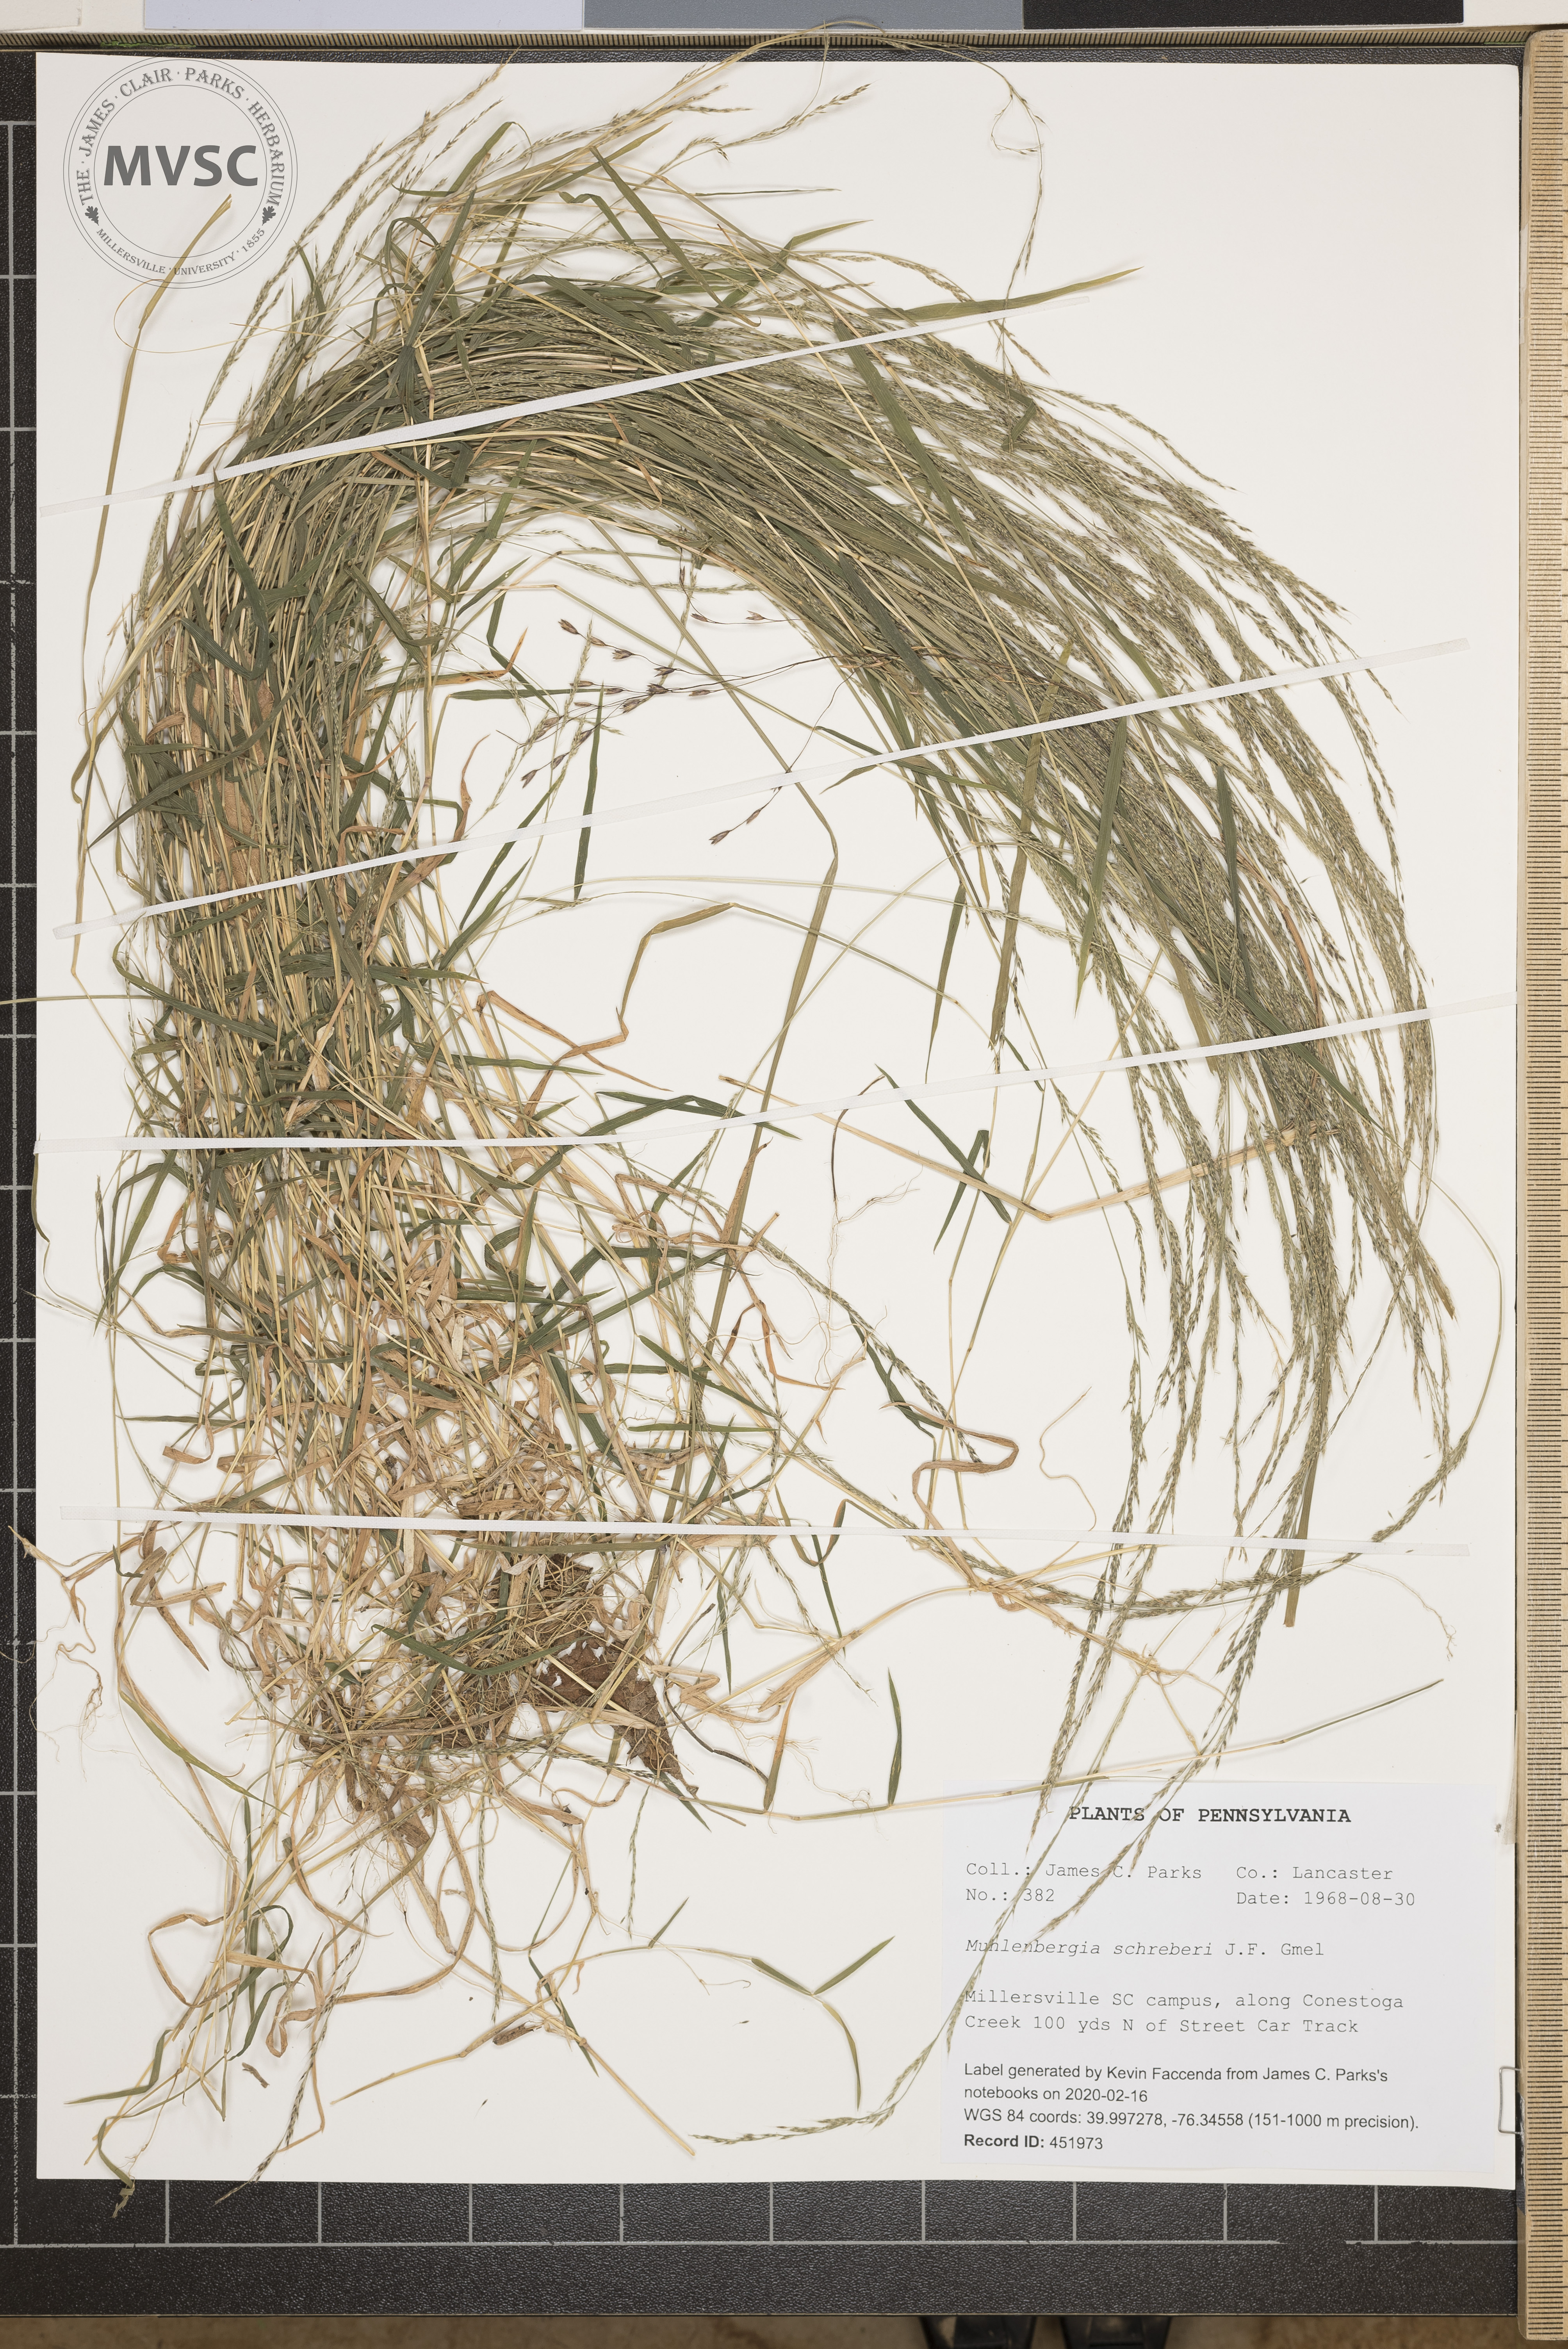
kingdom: Plantae
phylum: Tracheophyta
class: Liliopsida
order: Poales
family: Poaceae
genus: Muhlenbergia
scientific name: Muhlenbergia schreberi
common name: Nimblewill
